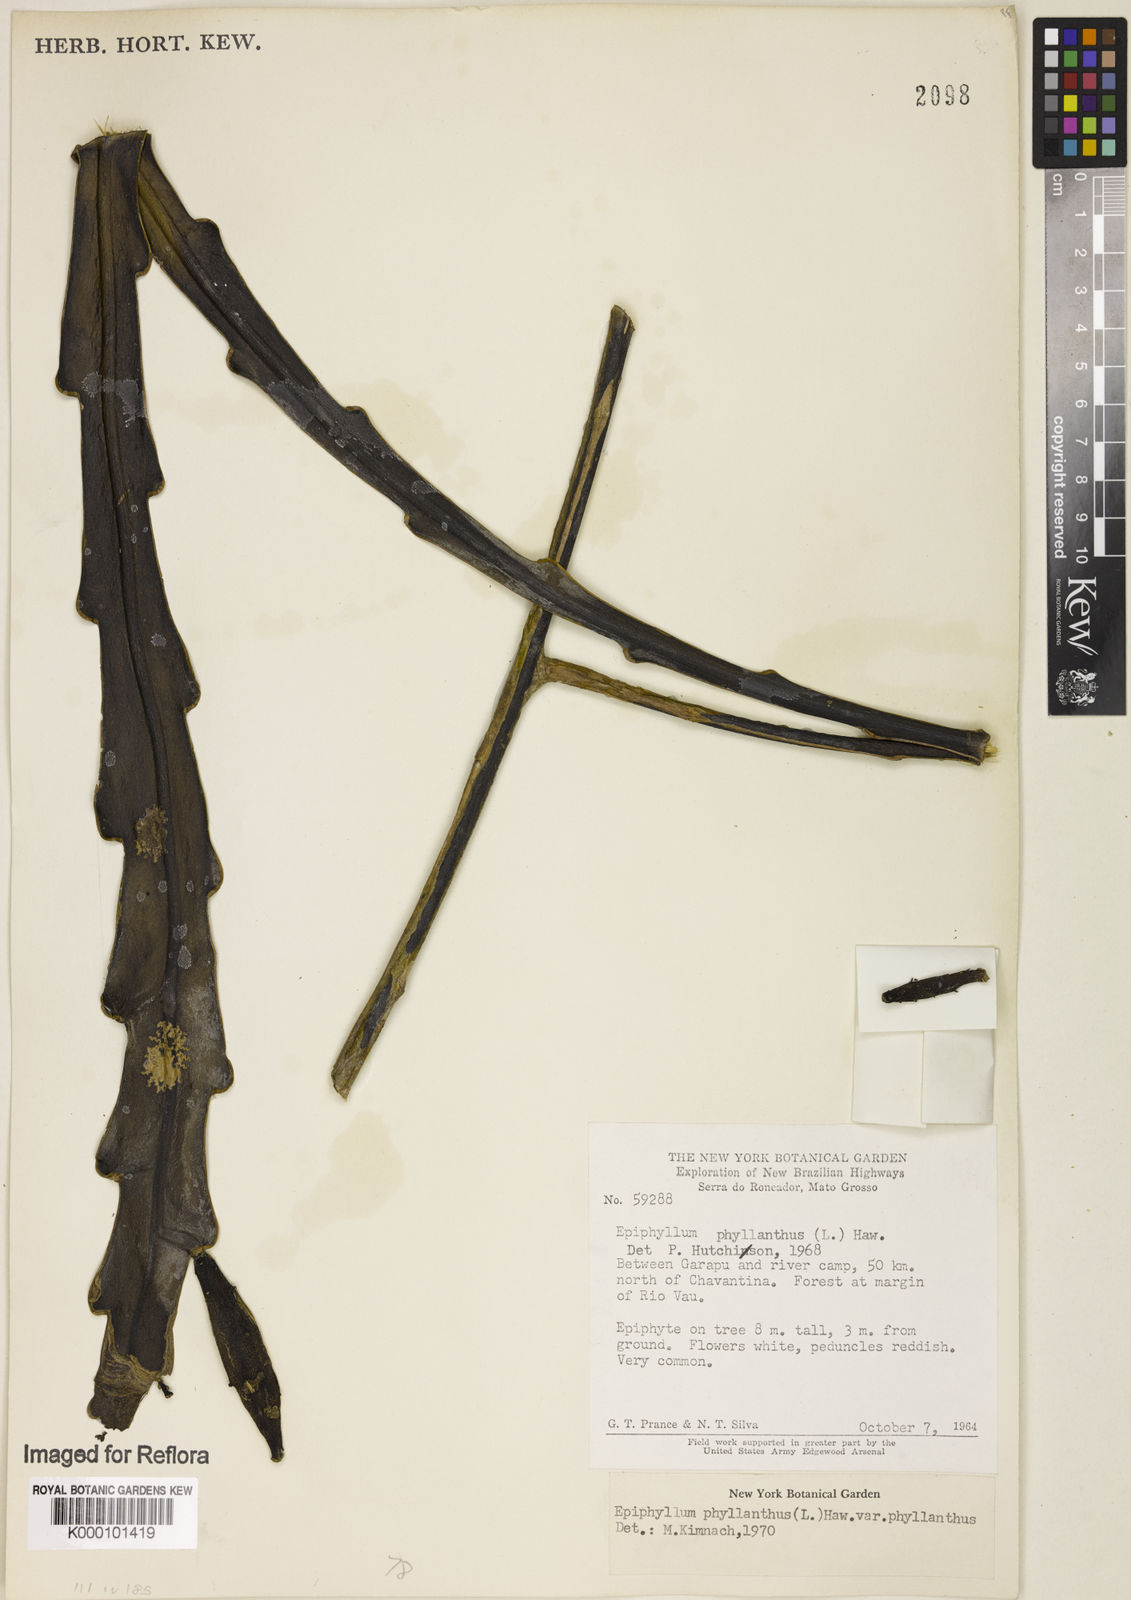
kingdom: Plantae
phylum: Tracheophyta
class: Magnoliopsida
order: Caryophyllales
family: Cactaceae
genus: Epiphyllum
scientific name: Epiphyllum phyllanthus
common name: Climbing cactus
